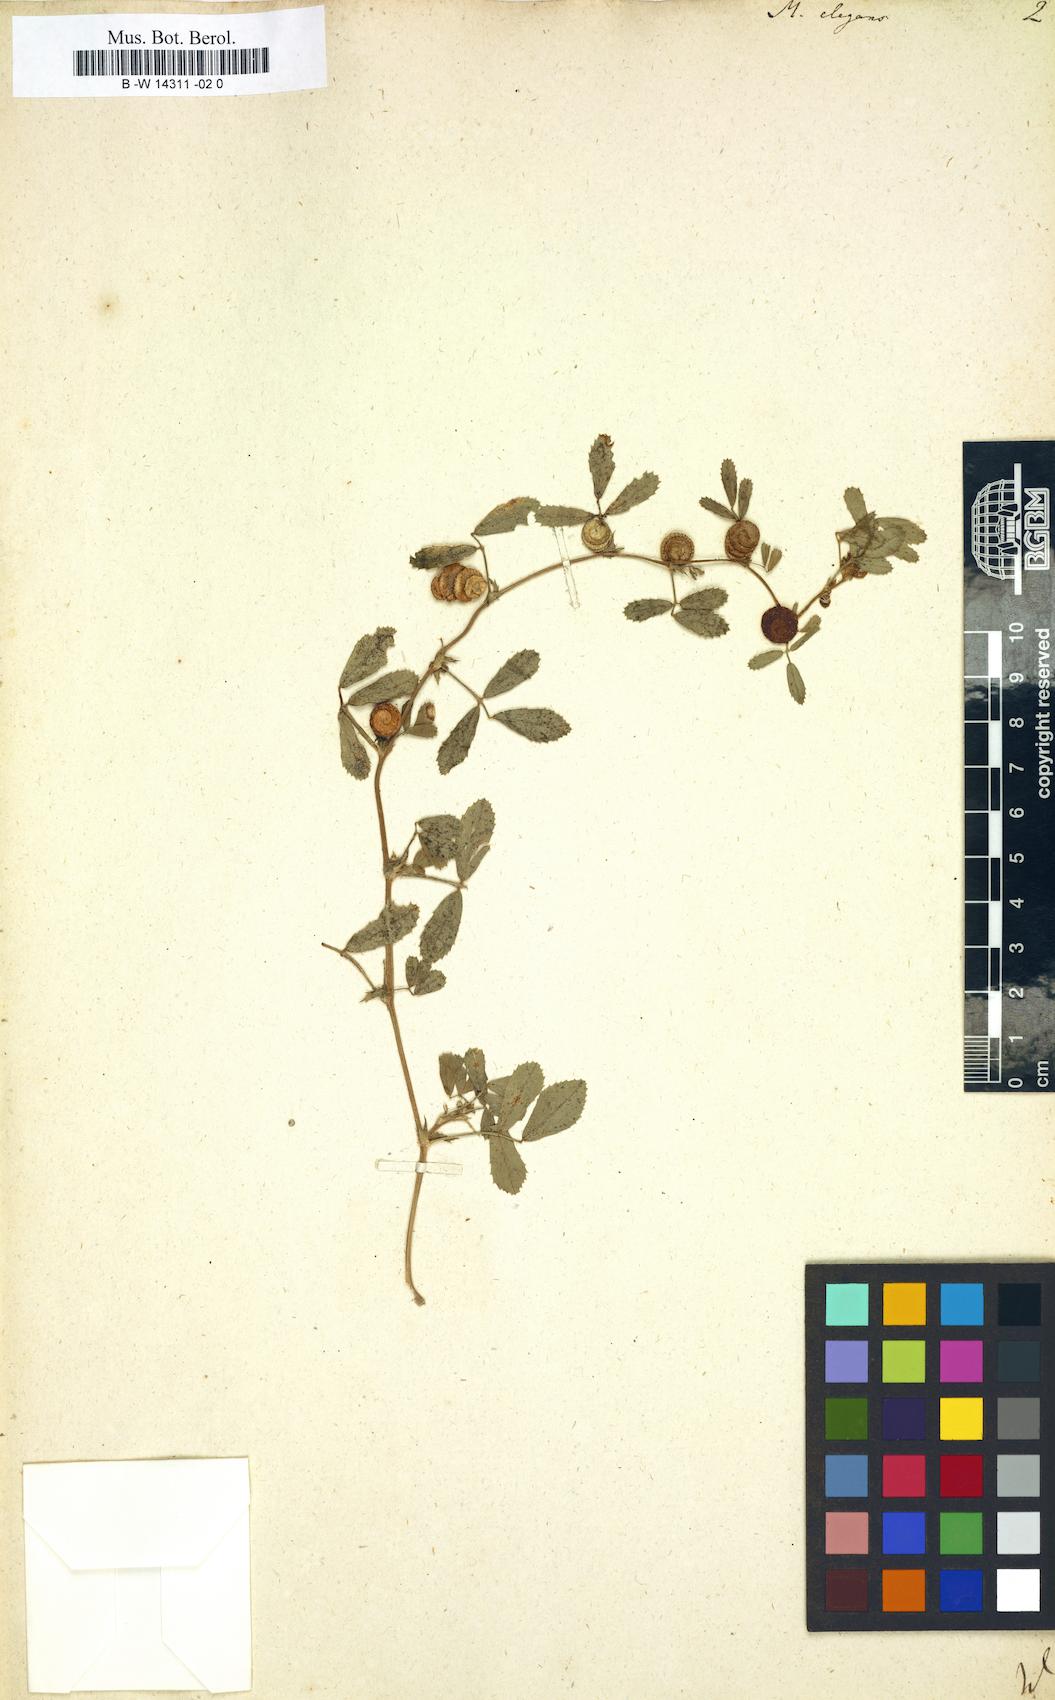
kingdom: Plantae
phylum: Tracheophyta
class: Magnoliopsida
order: Fabales
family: Fabaceae
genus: Medicago
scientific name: Medicago rugosa
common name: Gama medic
